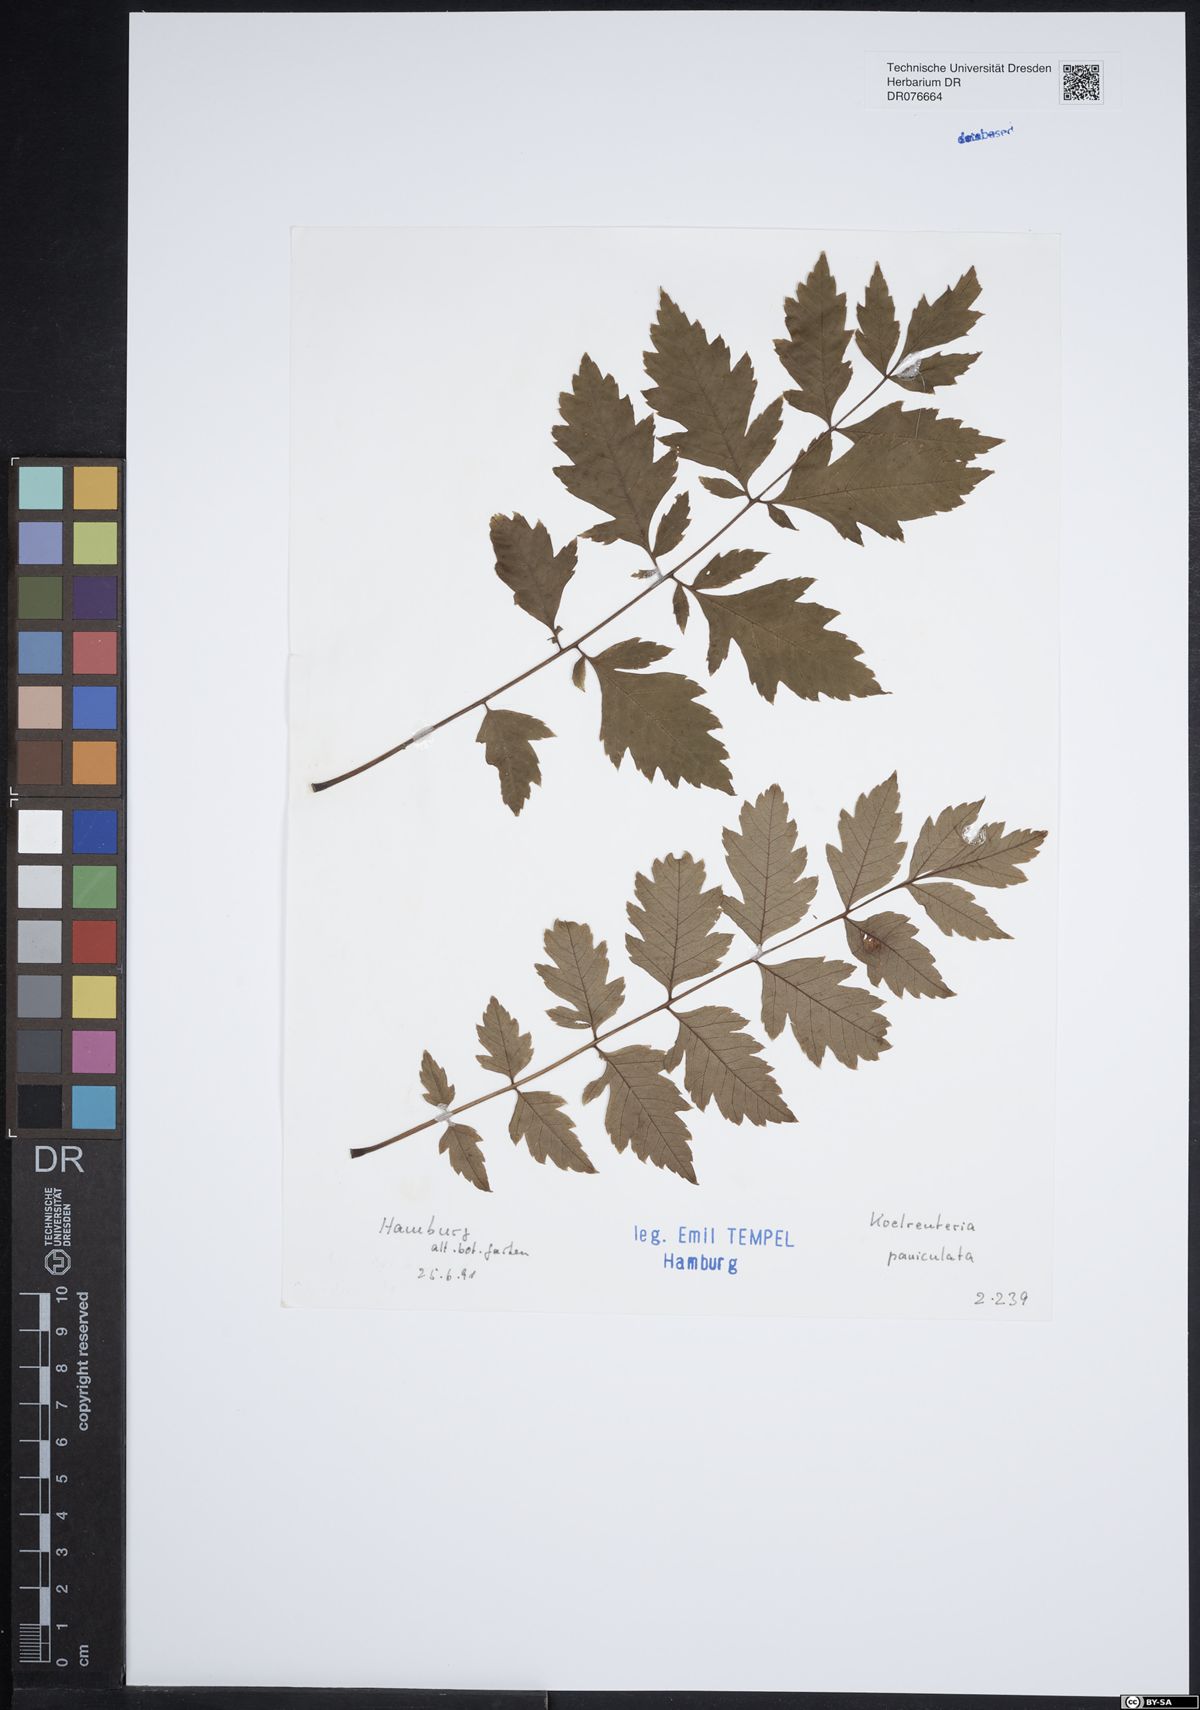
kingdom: Plantae
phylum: Tracheophyta
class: Magnoliopsida
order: Sapindales
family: Sapindaceae
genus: Koelreuteria
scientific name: Koelreuteria paniculata
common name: Pride-of-india
